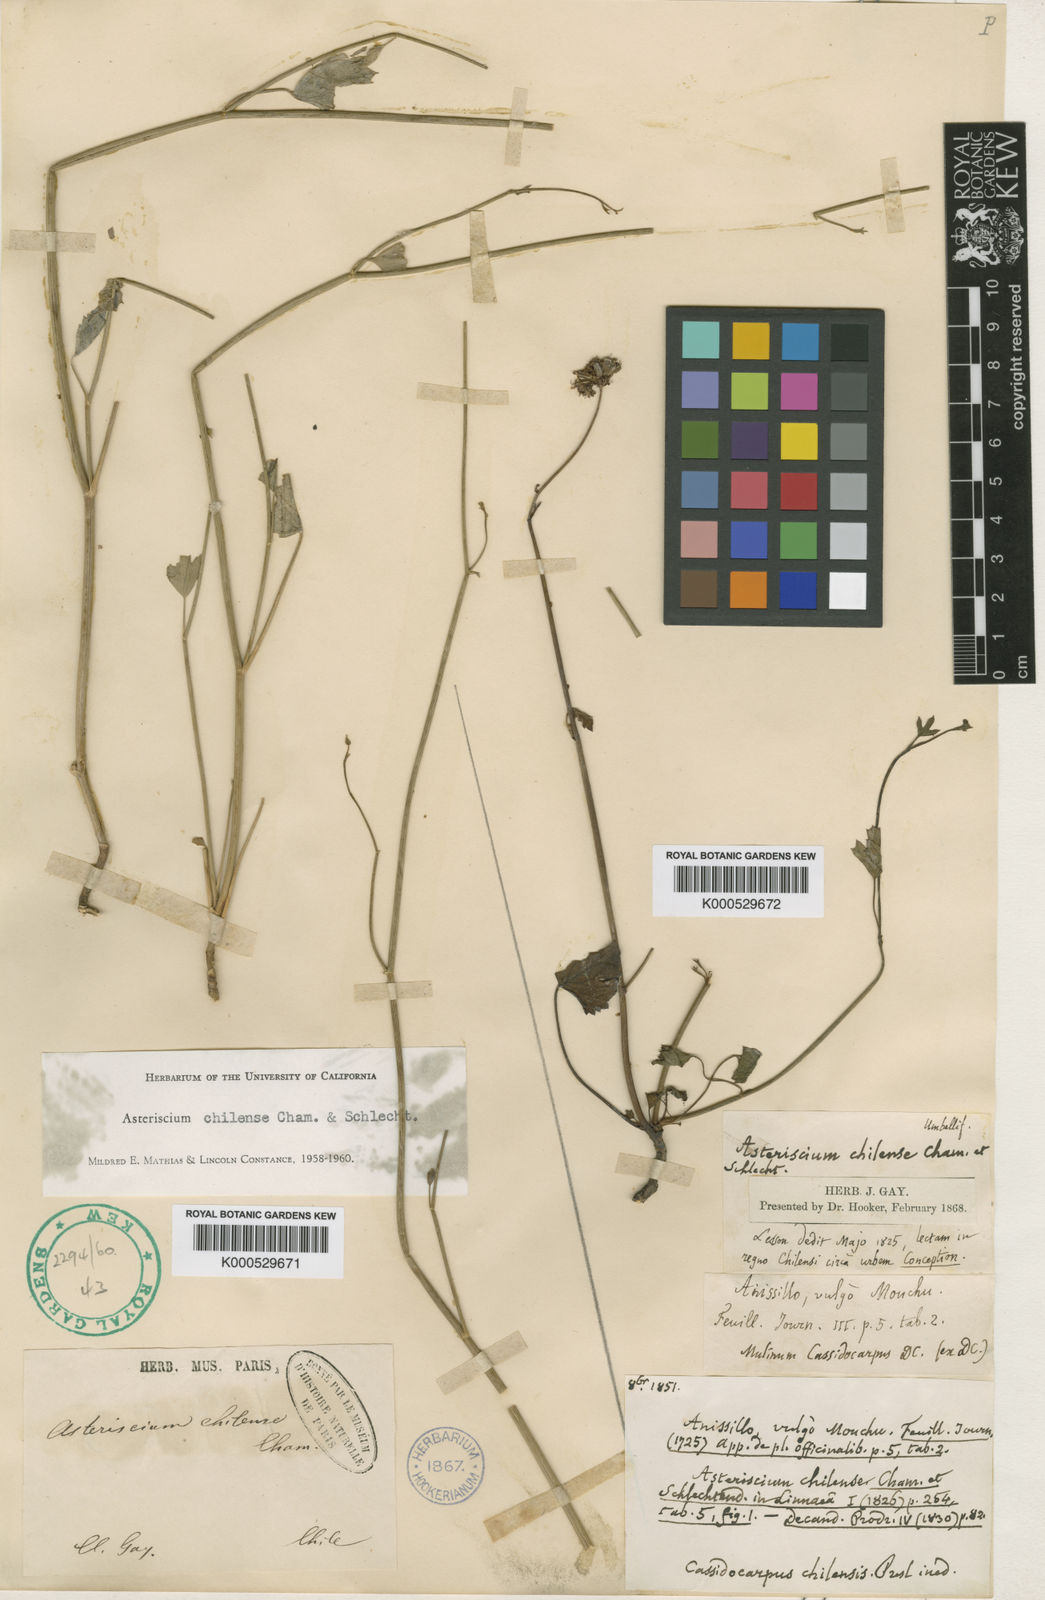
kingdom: Plantae
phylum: Tracheophyta
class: Magnoliopsida
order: Apiales
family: Apiaceae
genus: Asteriscium
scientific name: Asteriscium chilense
